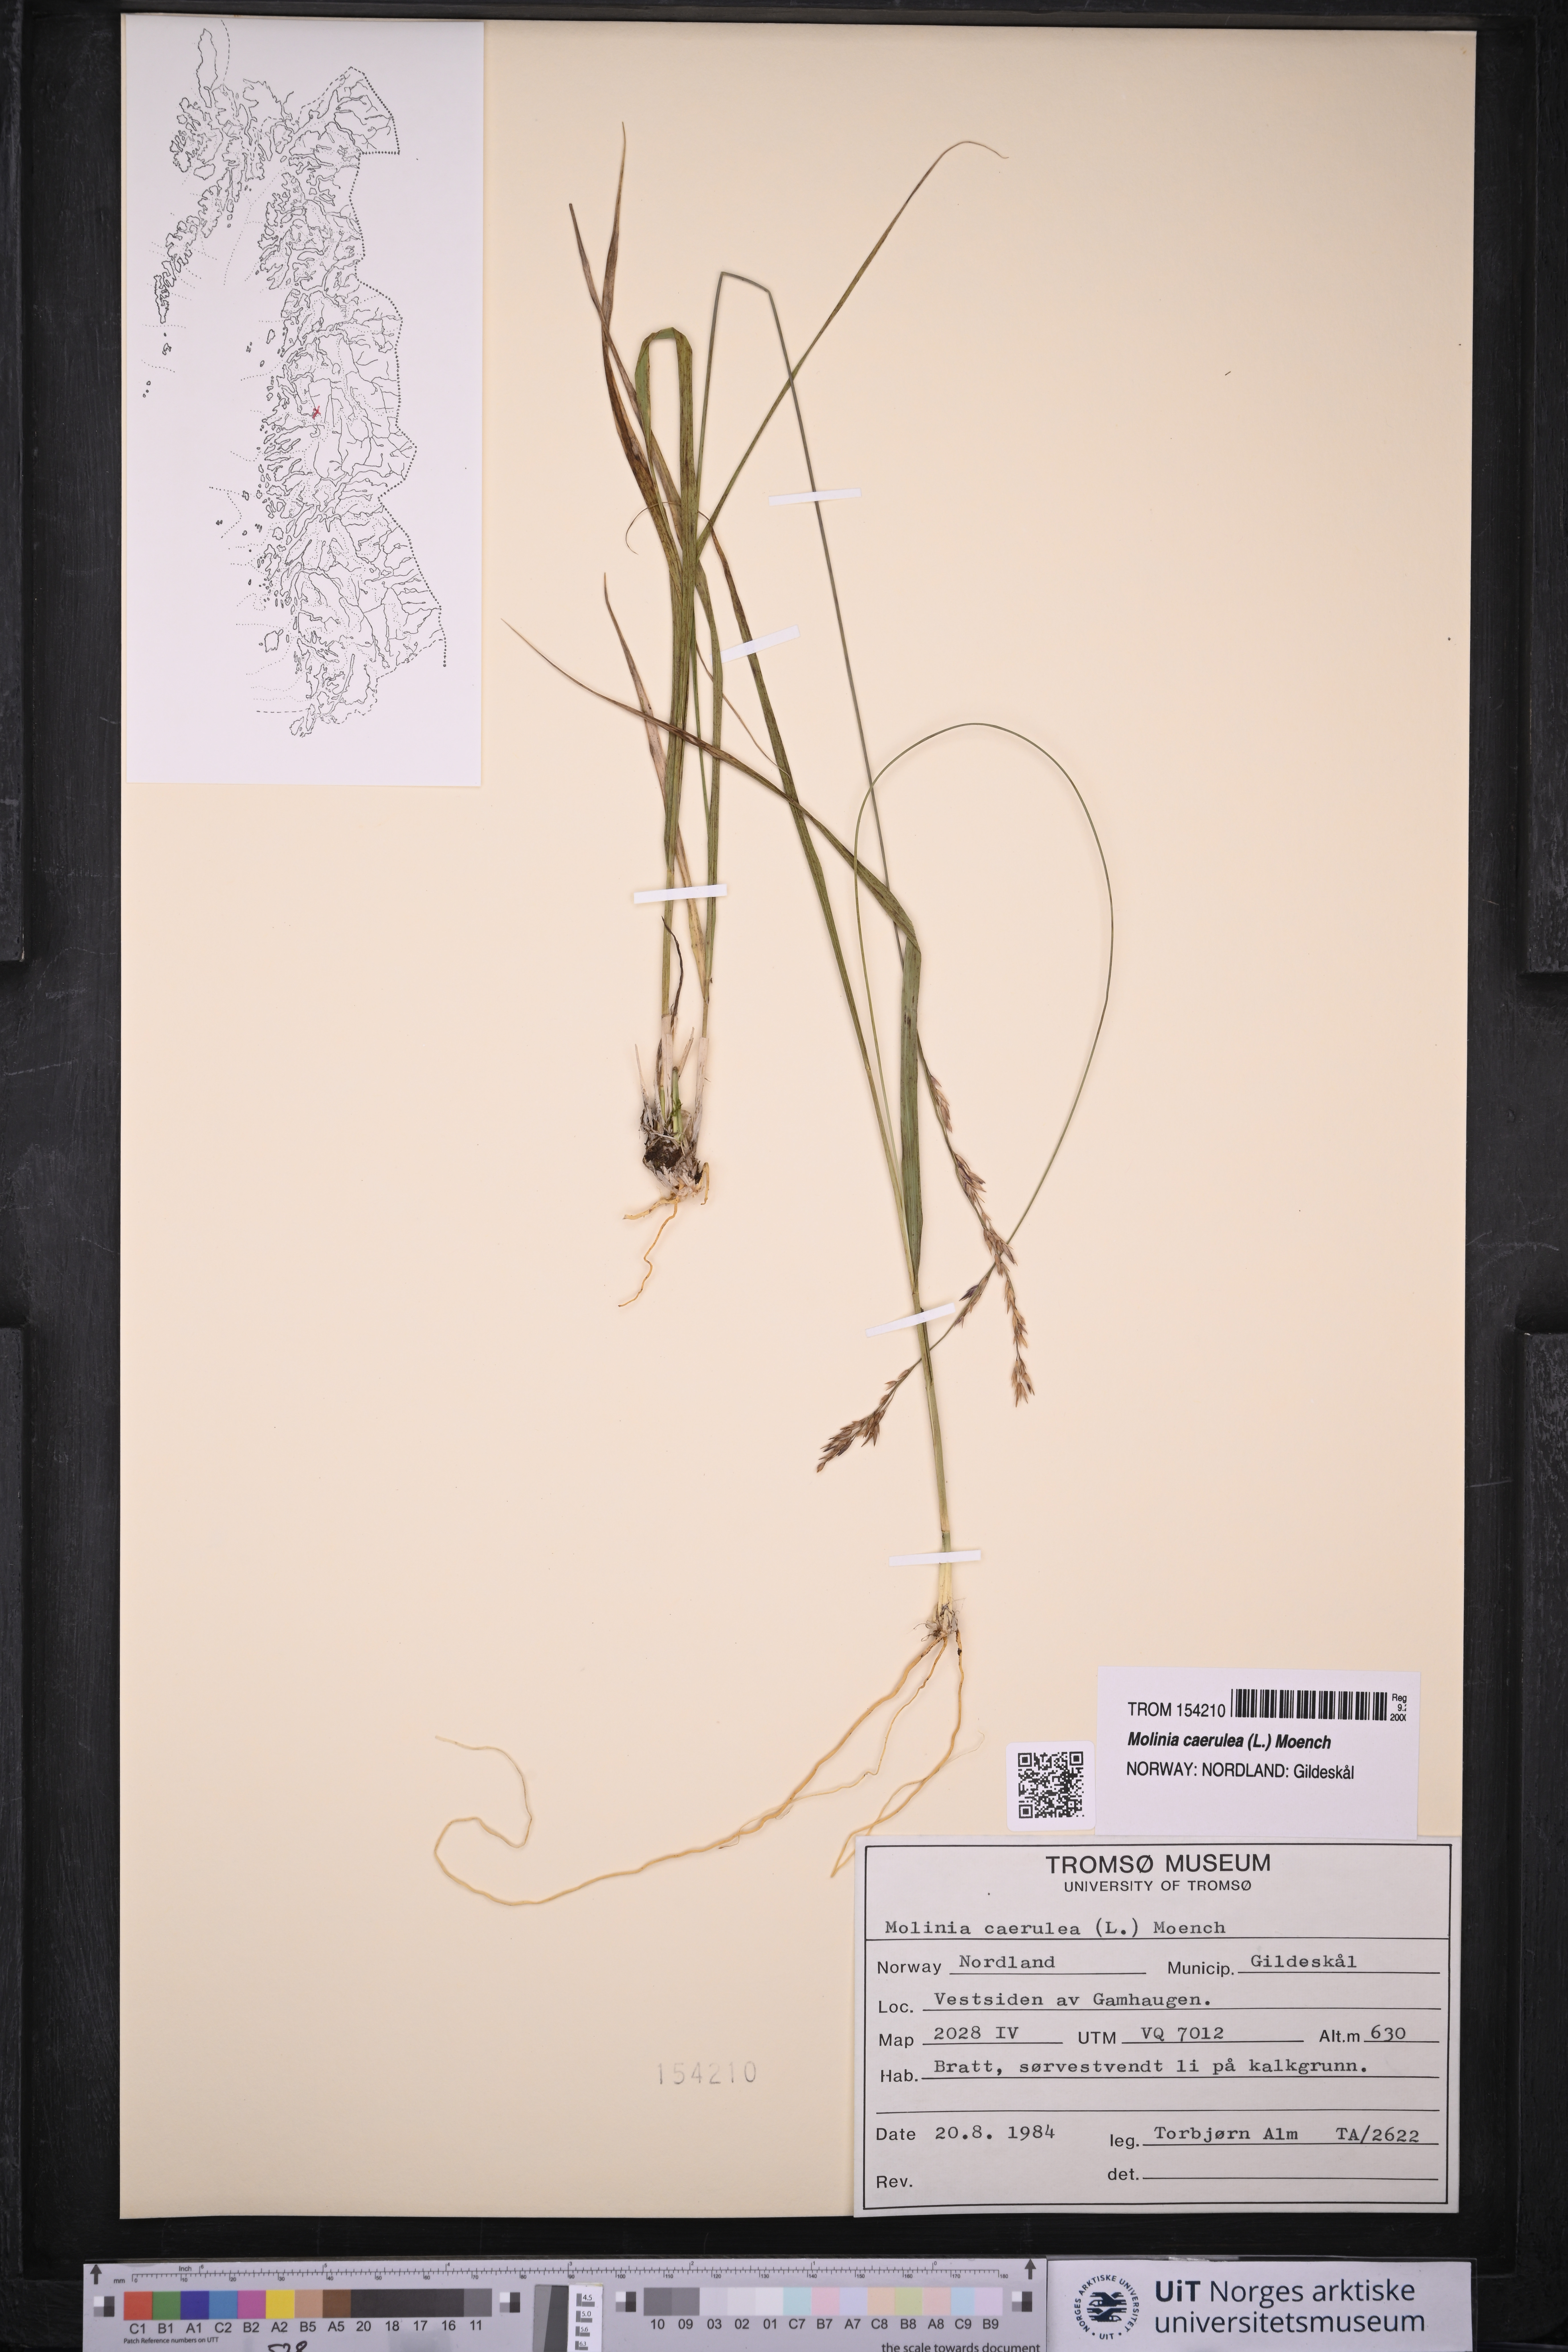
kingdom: Plantae
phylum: Tracheophyta
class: Liliopsida
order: Poales
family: Poaceae
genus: Molinia
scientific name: Molinia caerulea
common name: Purple moor-grass
